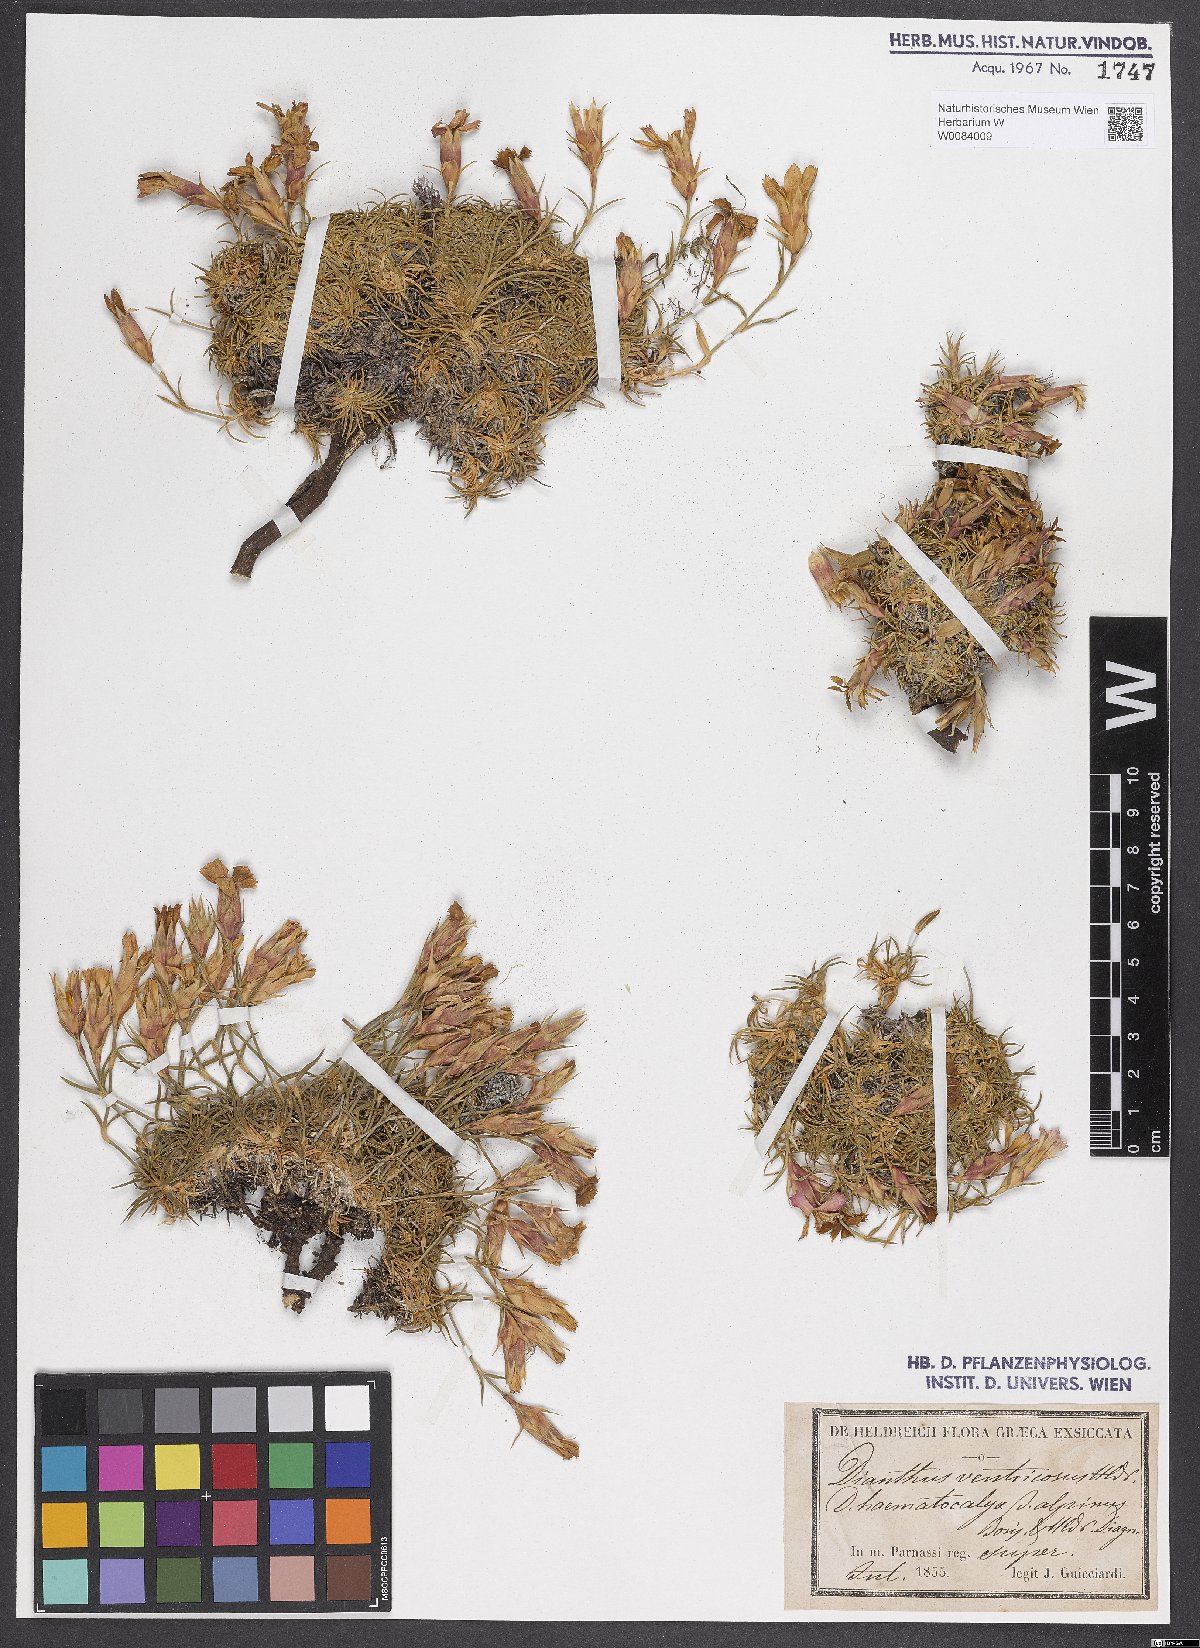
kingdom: Plantae
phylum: Tracheophyta
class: Magnoliopsida
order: Caryophyllales
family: Caryophyllaceae
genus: Dianthus
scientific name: Dianthus haematocalyx
